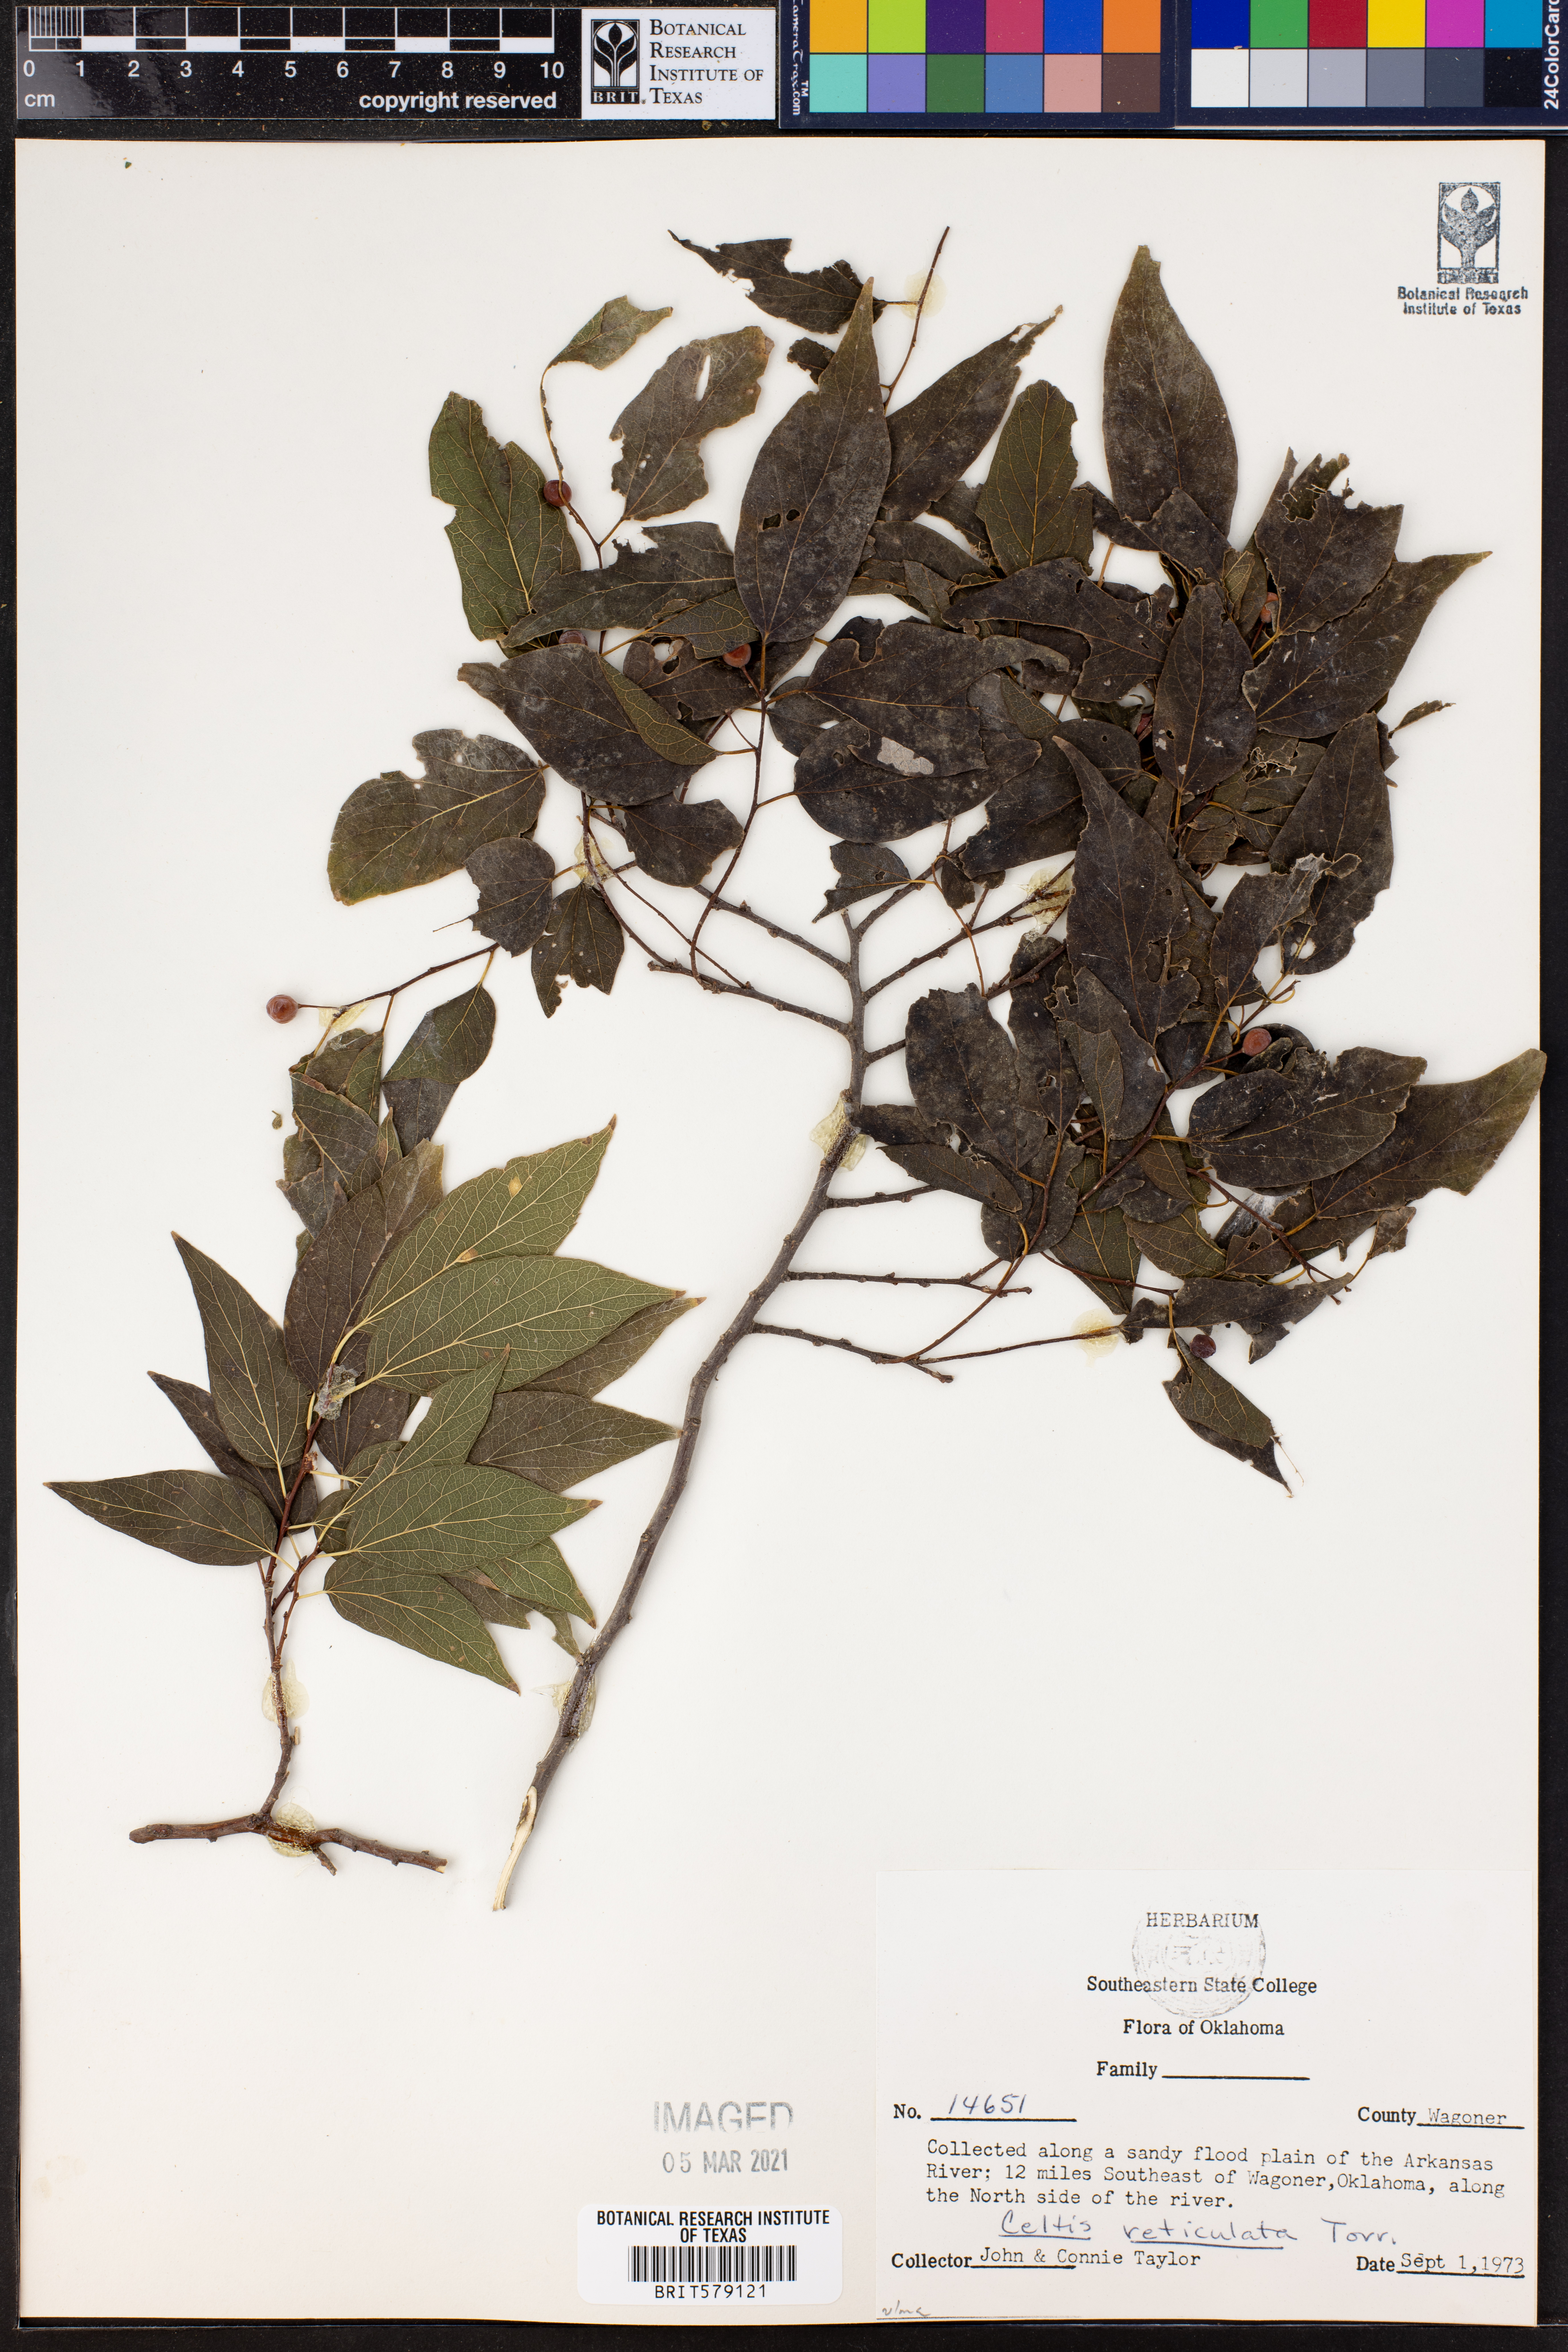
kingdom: Plantae
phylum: Tracheophyta
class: Magnoliopsida
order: Rosales
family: Cannabaceae
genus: Celtis
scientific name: Celtis reticulata
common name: Netleaf hackberry
